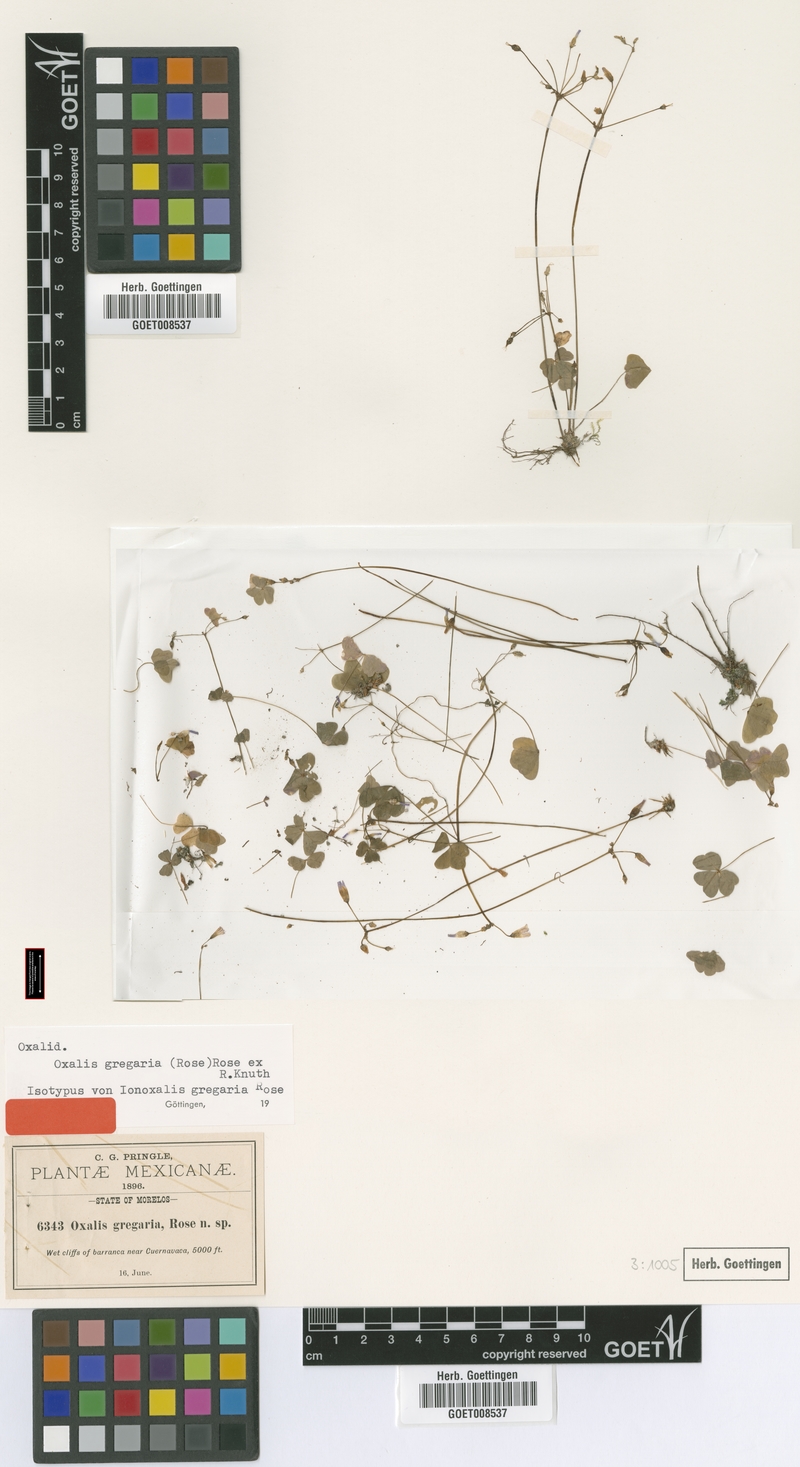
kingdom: Plantae
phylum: Tracheophyta
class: Magnoliopsida
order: Oxalidales
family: Oxalidaceae
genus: Oxalis
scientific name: Oxalis dimidiata
